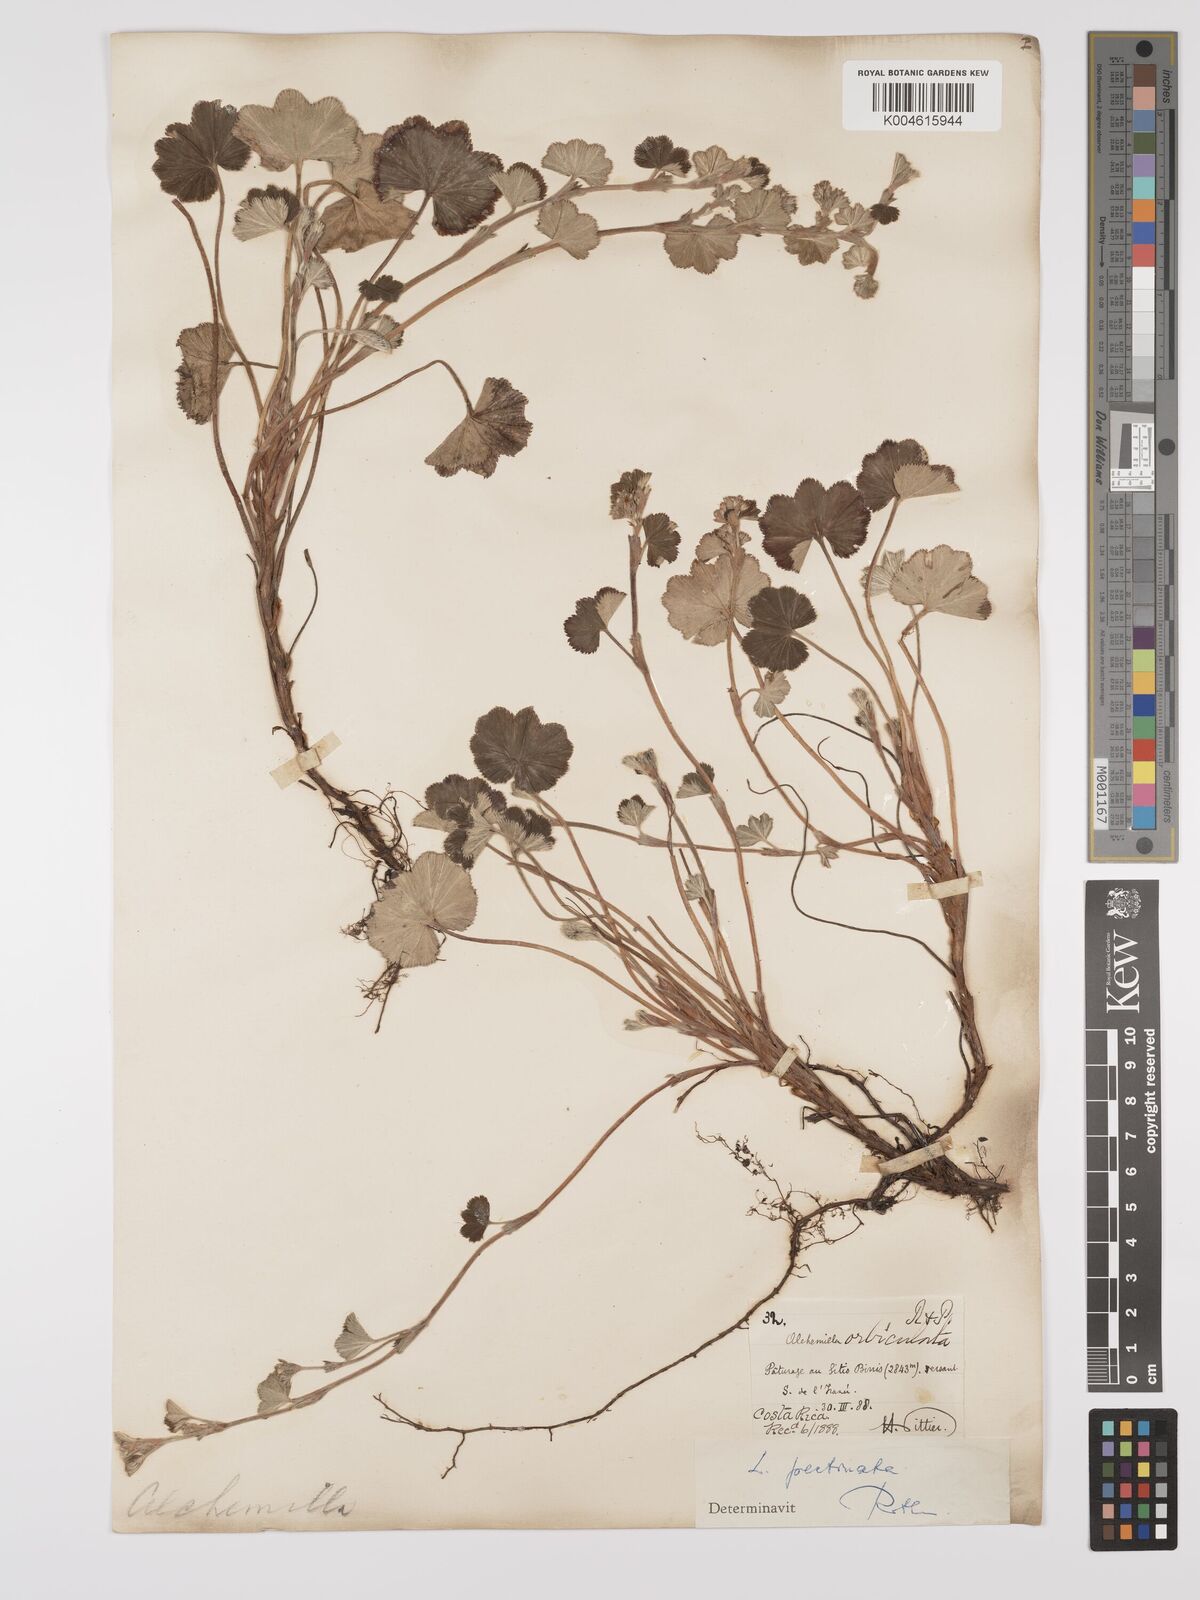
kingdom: Plantae
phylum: Tracheophyta
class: Magnoliopsida
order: Rosales
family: Rosaceae
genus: Lachemilla
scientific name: Lachemilla pectinata
